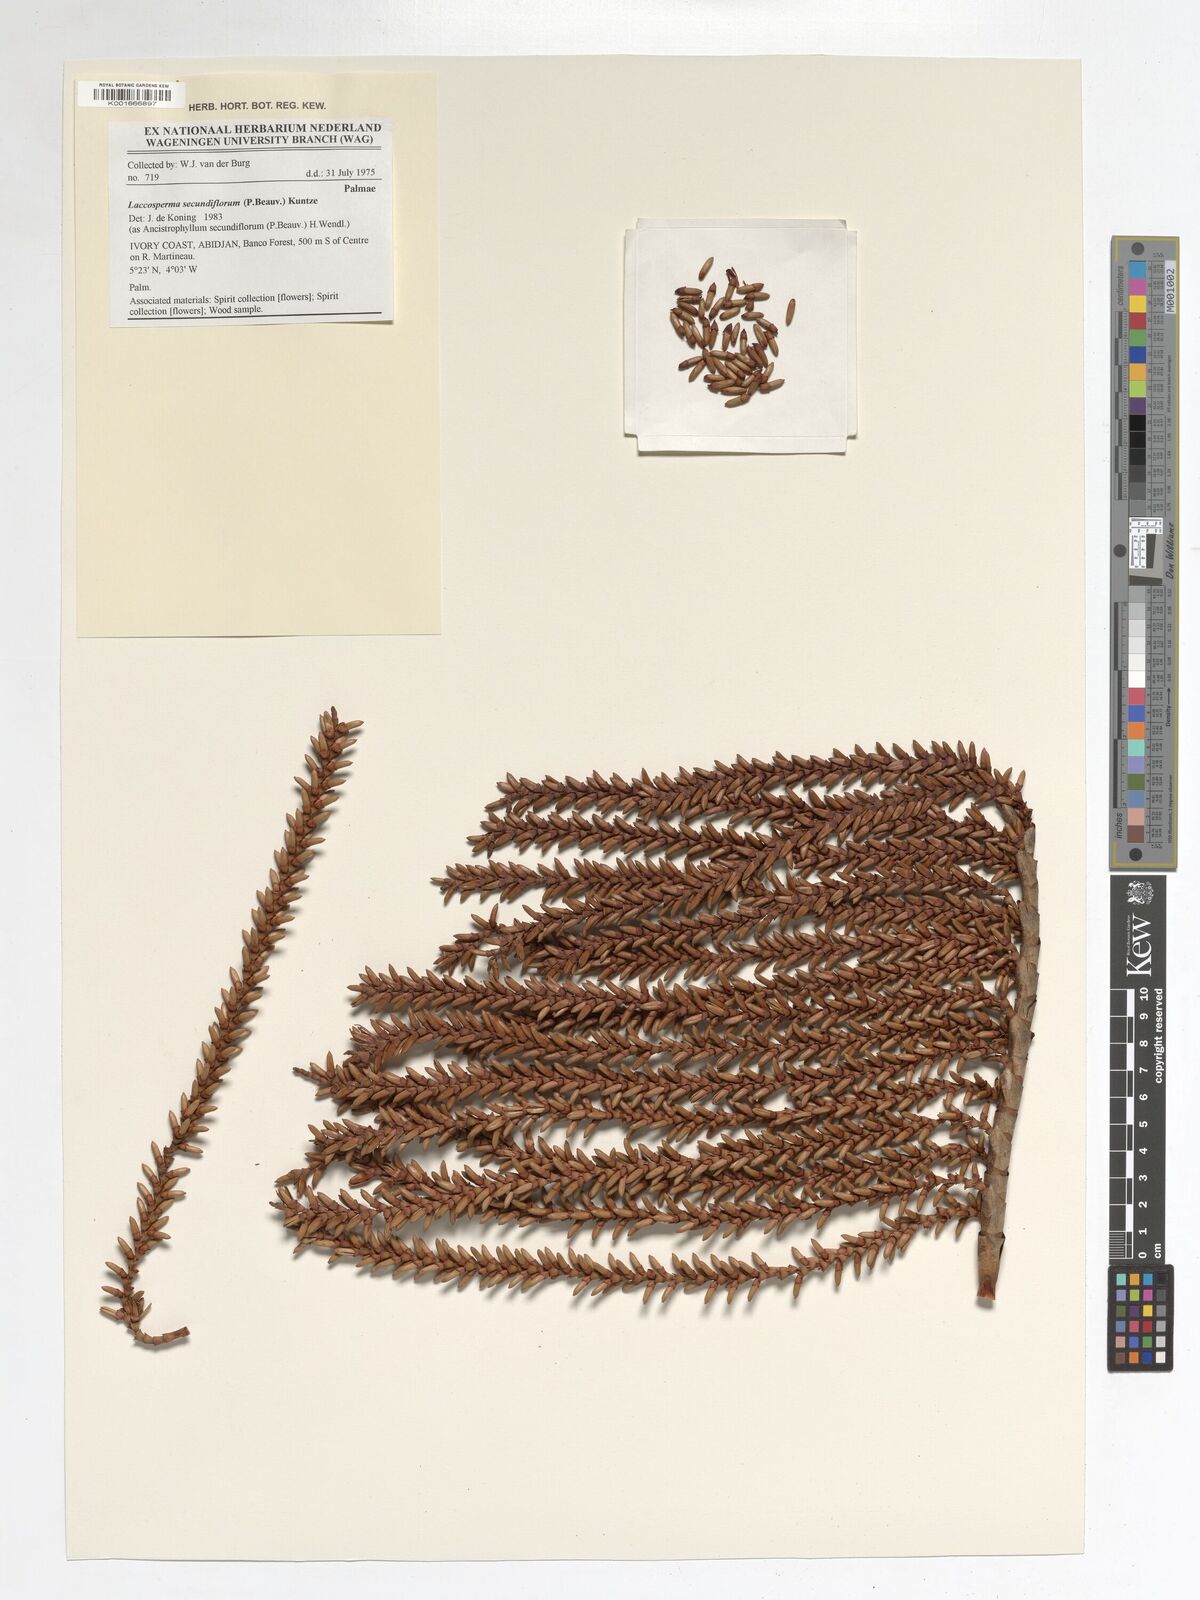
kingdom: Plantae
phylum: Tracheophyta
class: Liliopsida
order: Arecales
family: Arecaceae
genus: Laccosperma
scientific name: Laccosperma secundiflorum
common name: Rattan
